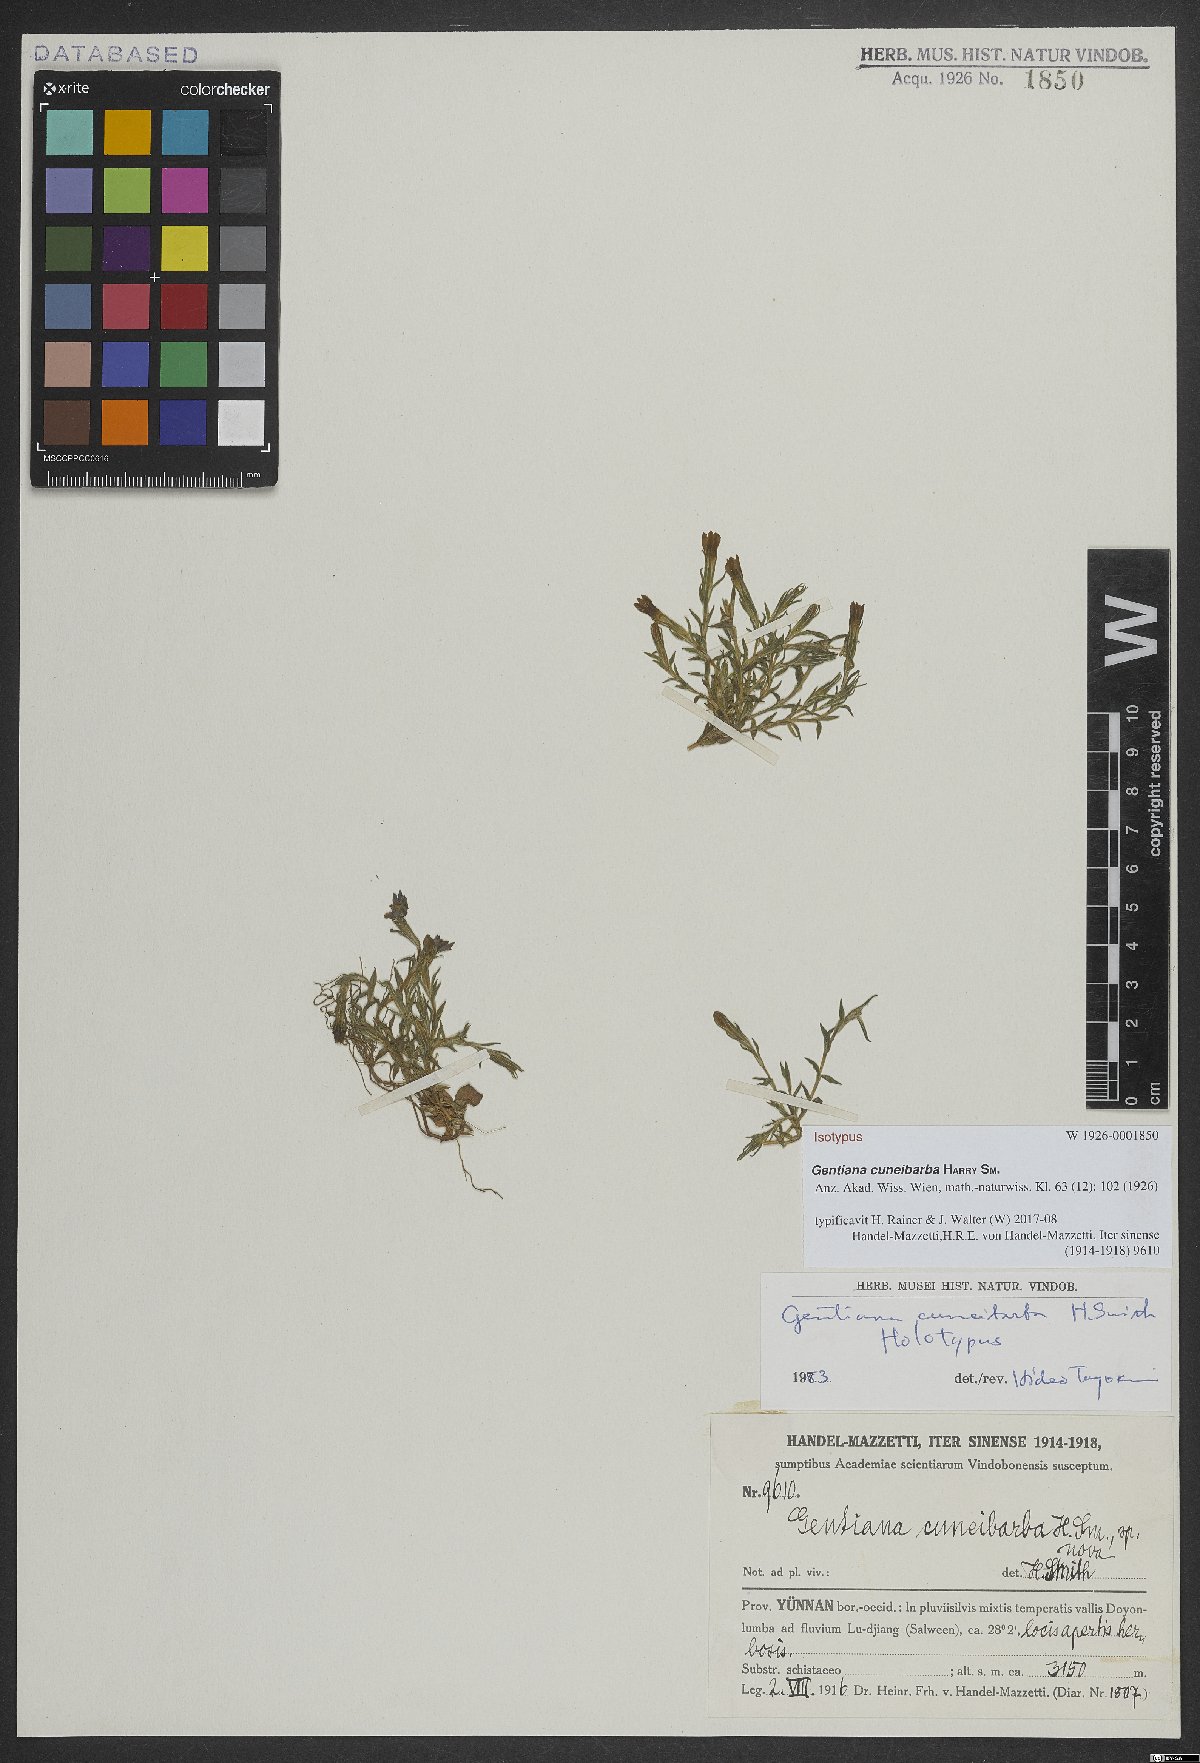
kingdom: Plantae
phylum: Tracheophyta
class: Magnoliopsida
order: Gentianales
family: Gentianaceae
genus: Gentiana
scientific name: Gentiana cuneibarba
